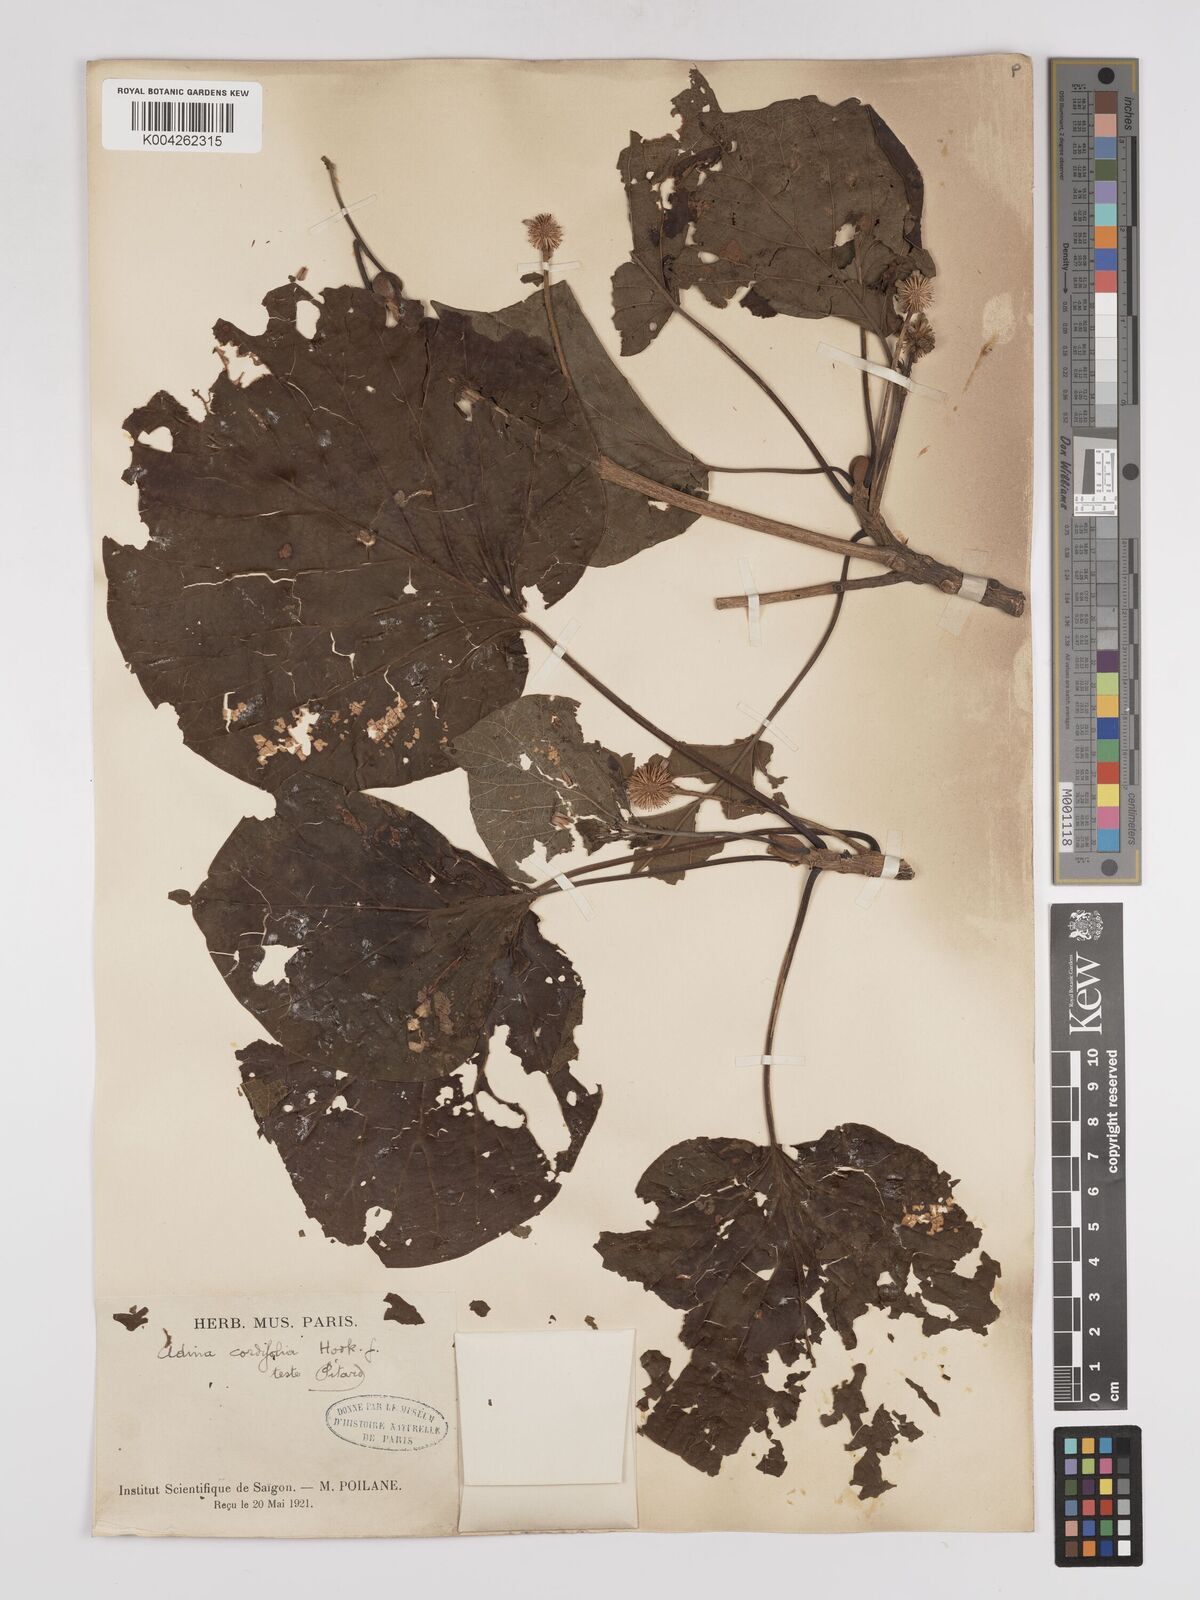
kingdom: Plantae
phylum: Tracheophyta
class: Magnoliopsida
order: Gentianales
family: Rubiaceae
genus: Adina
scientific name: Adina cordifolia
